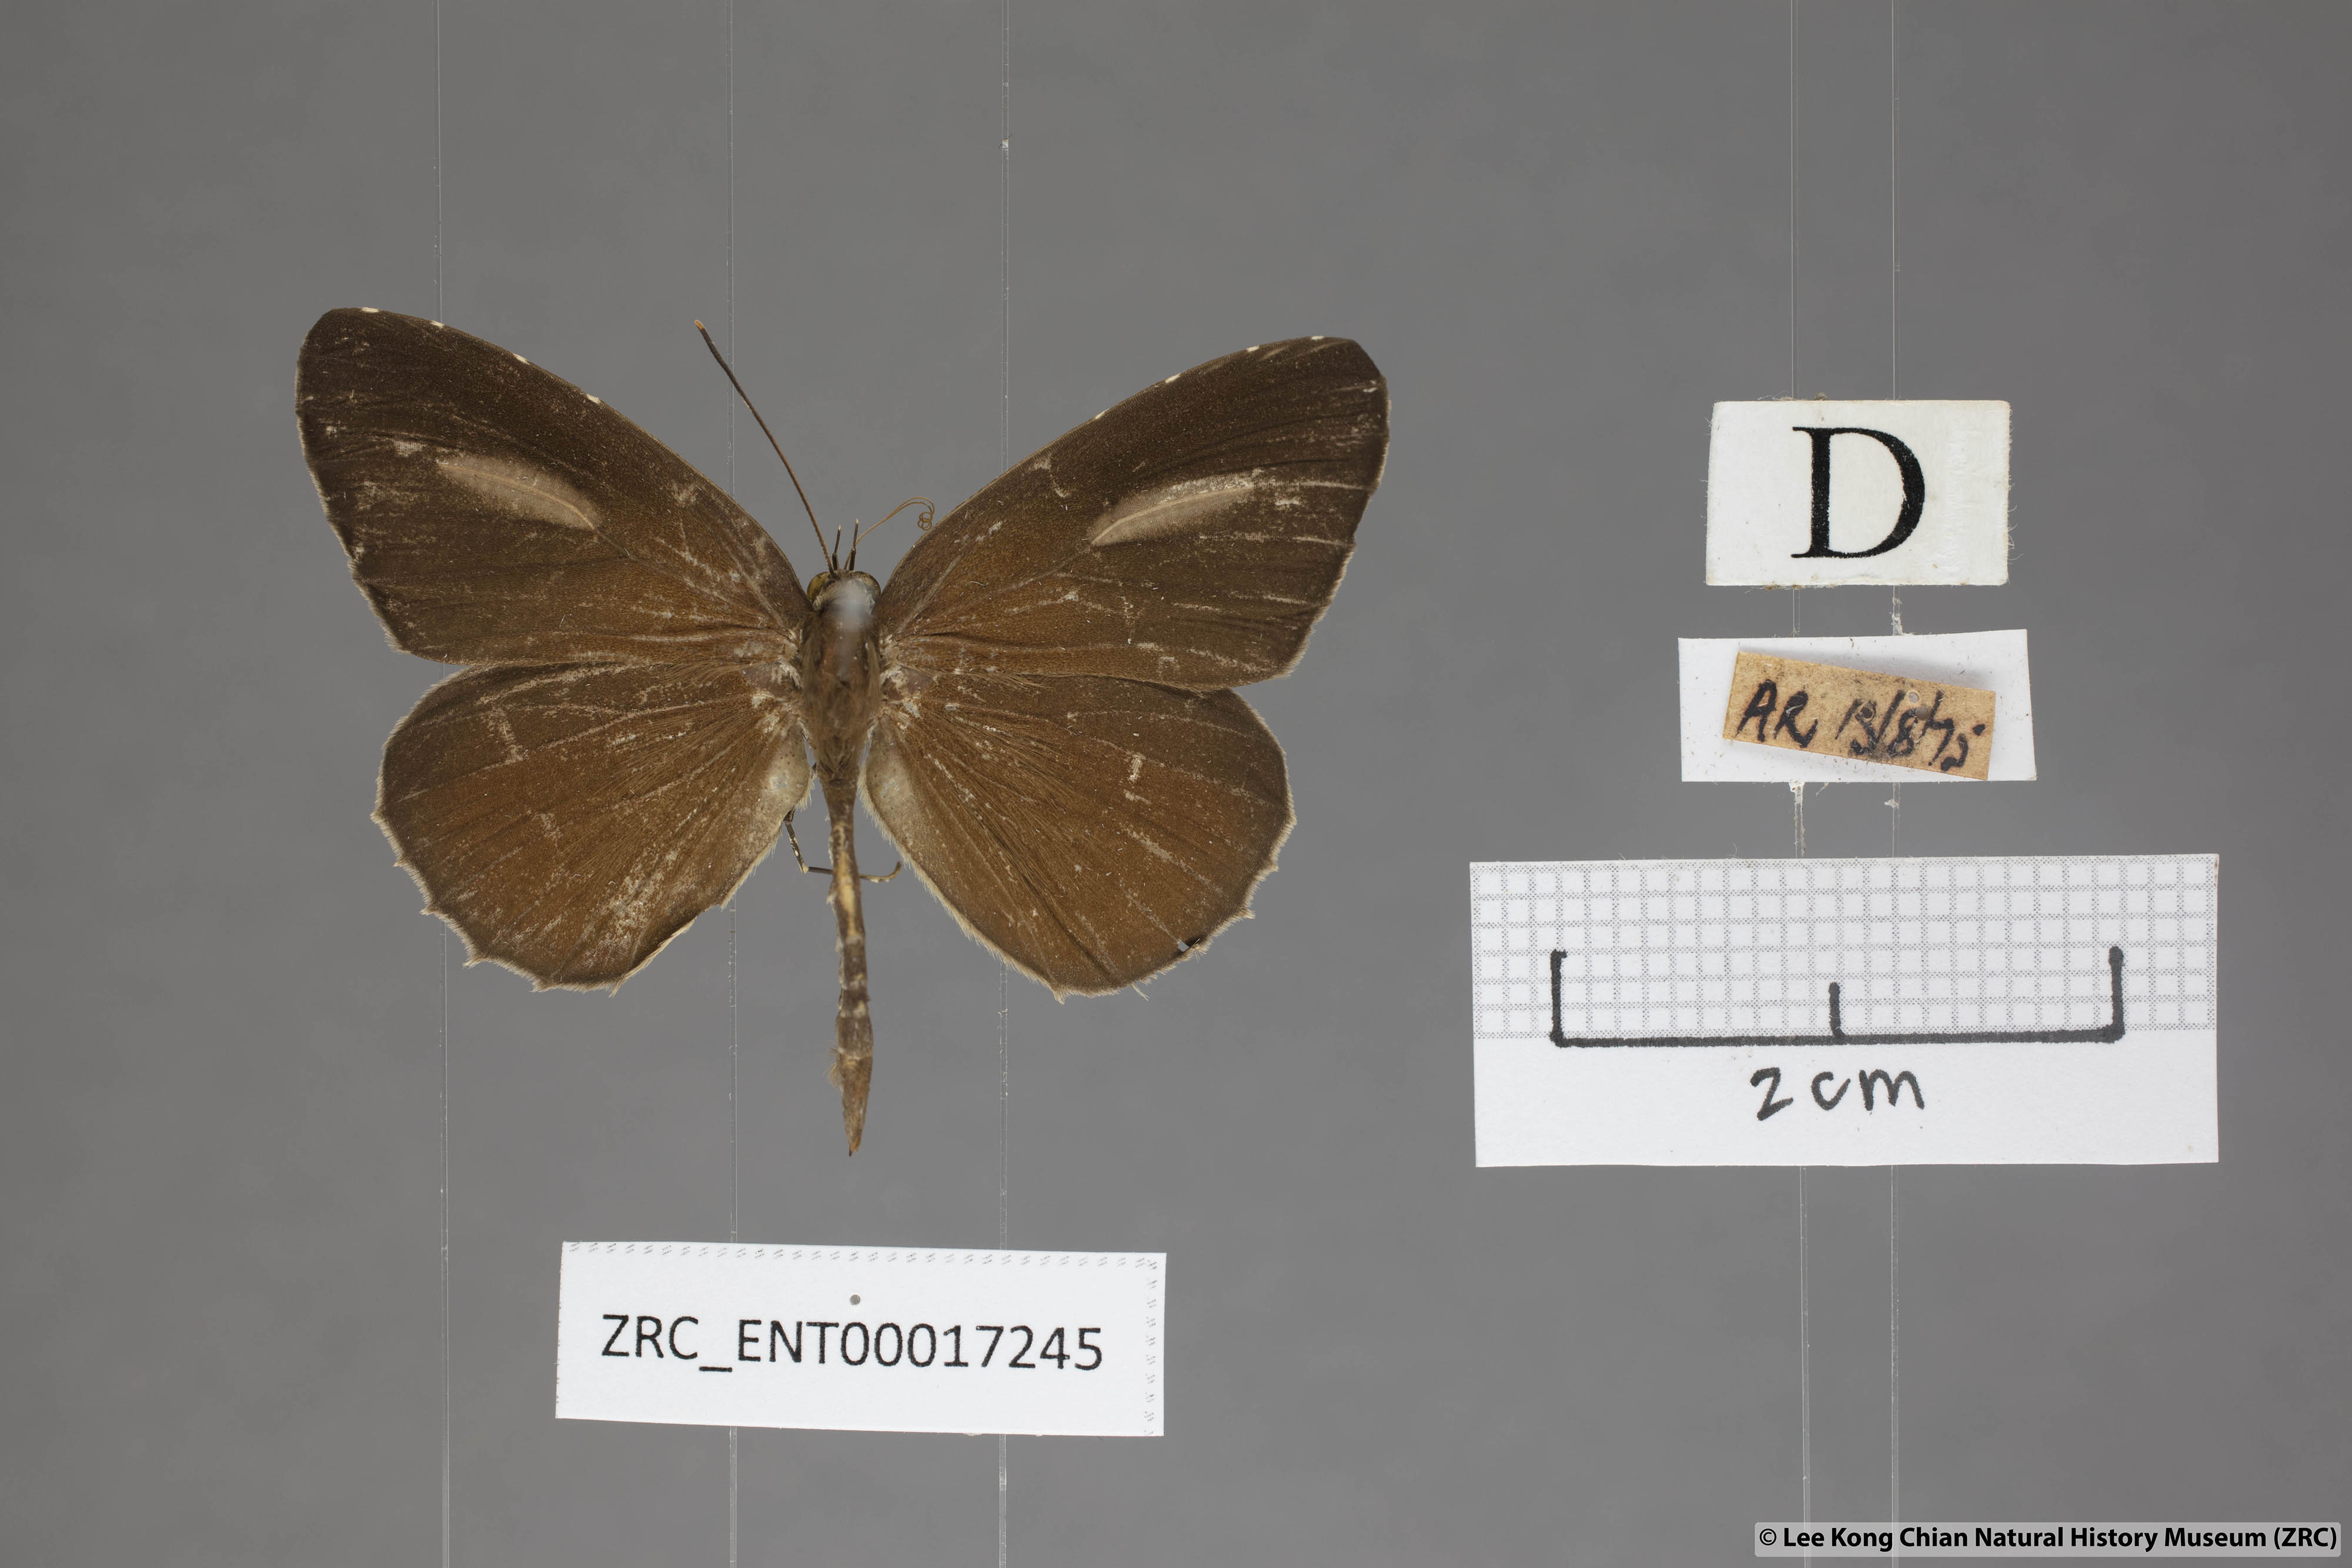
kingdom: Animalia
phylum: Arthropoda
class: Insecta
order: Lepidoptera
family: Lycaenidae
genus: Allotinus
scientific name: Allotinus horsfieldi
